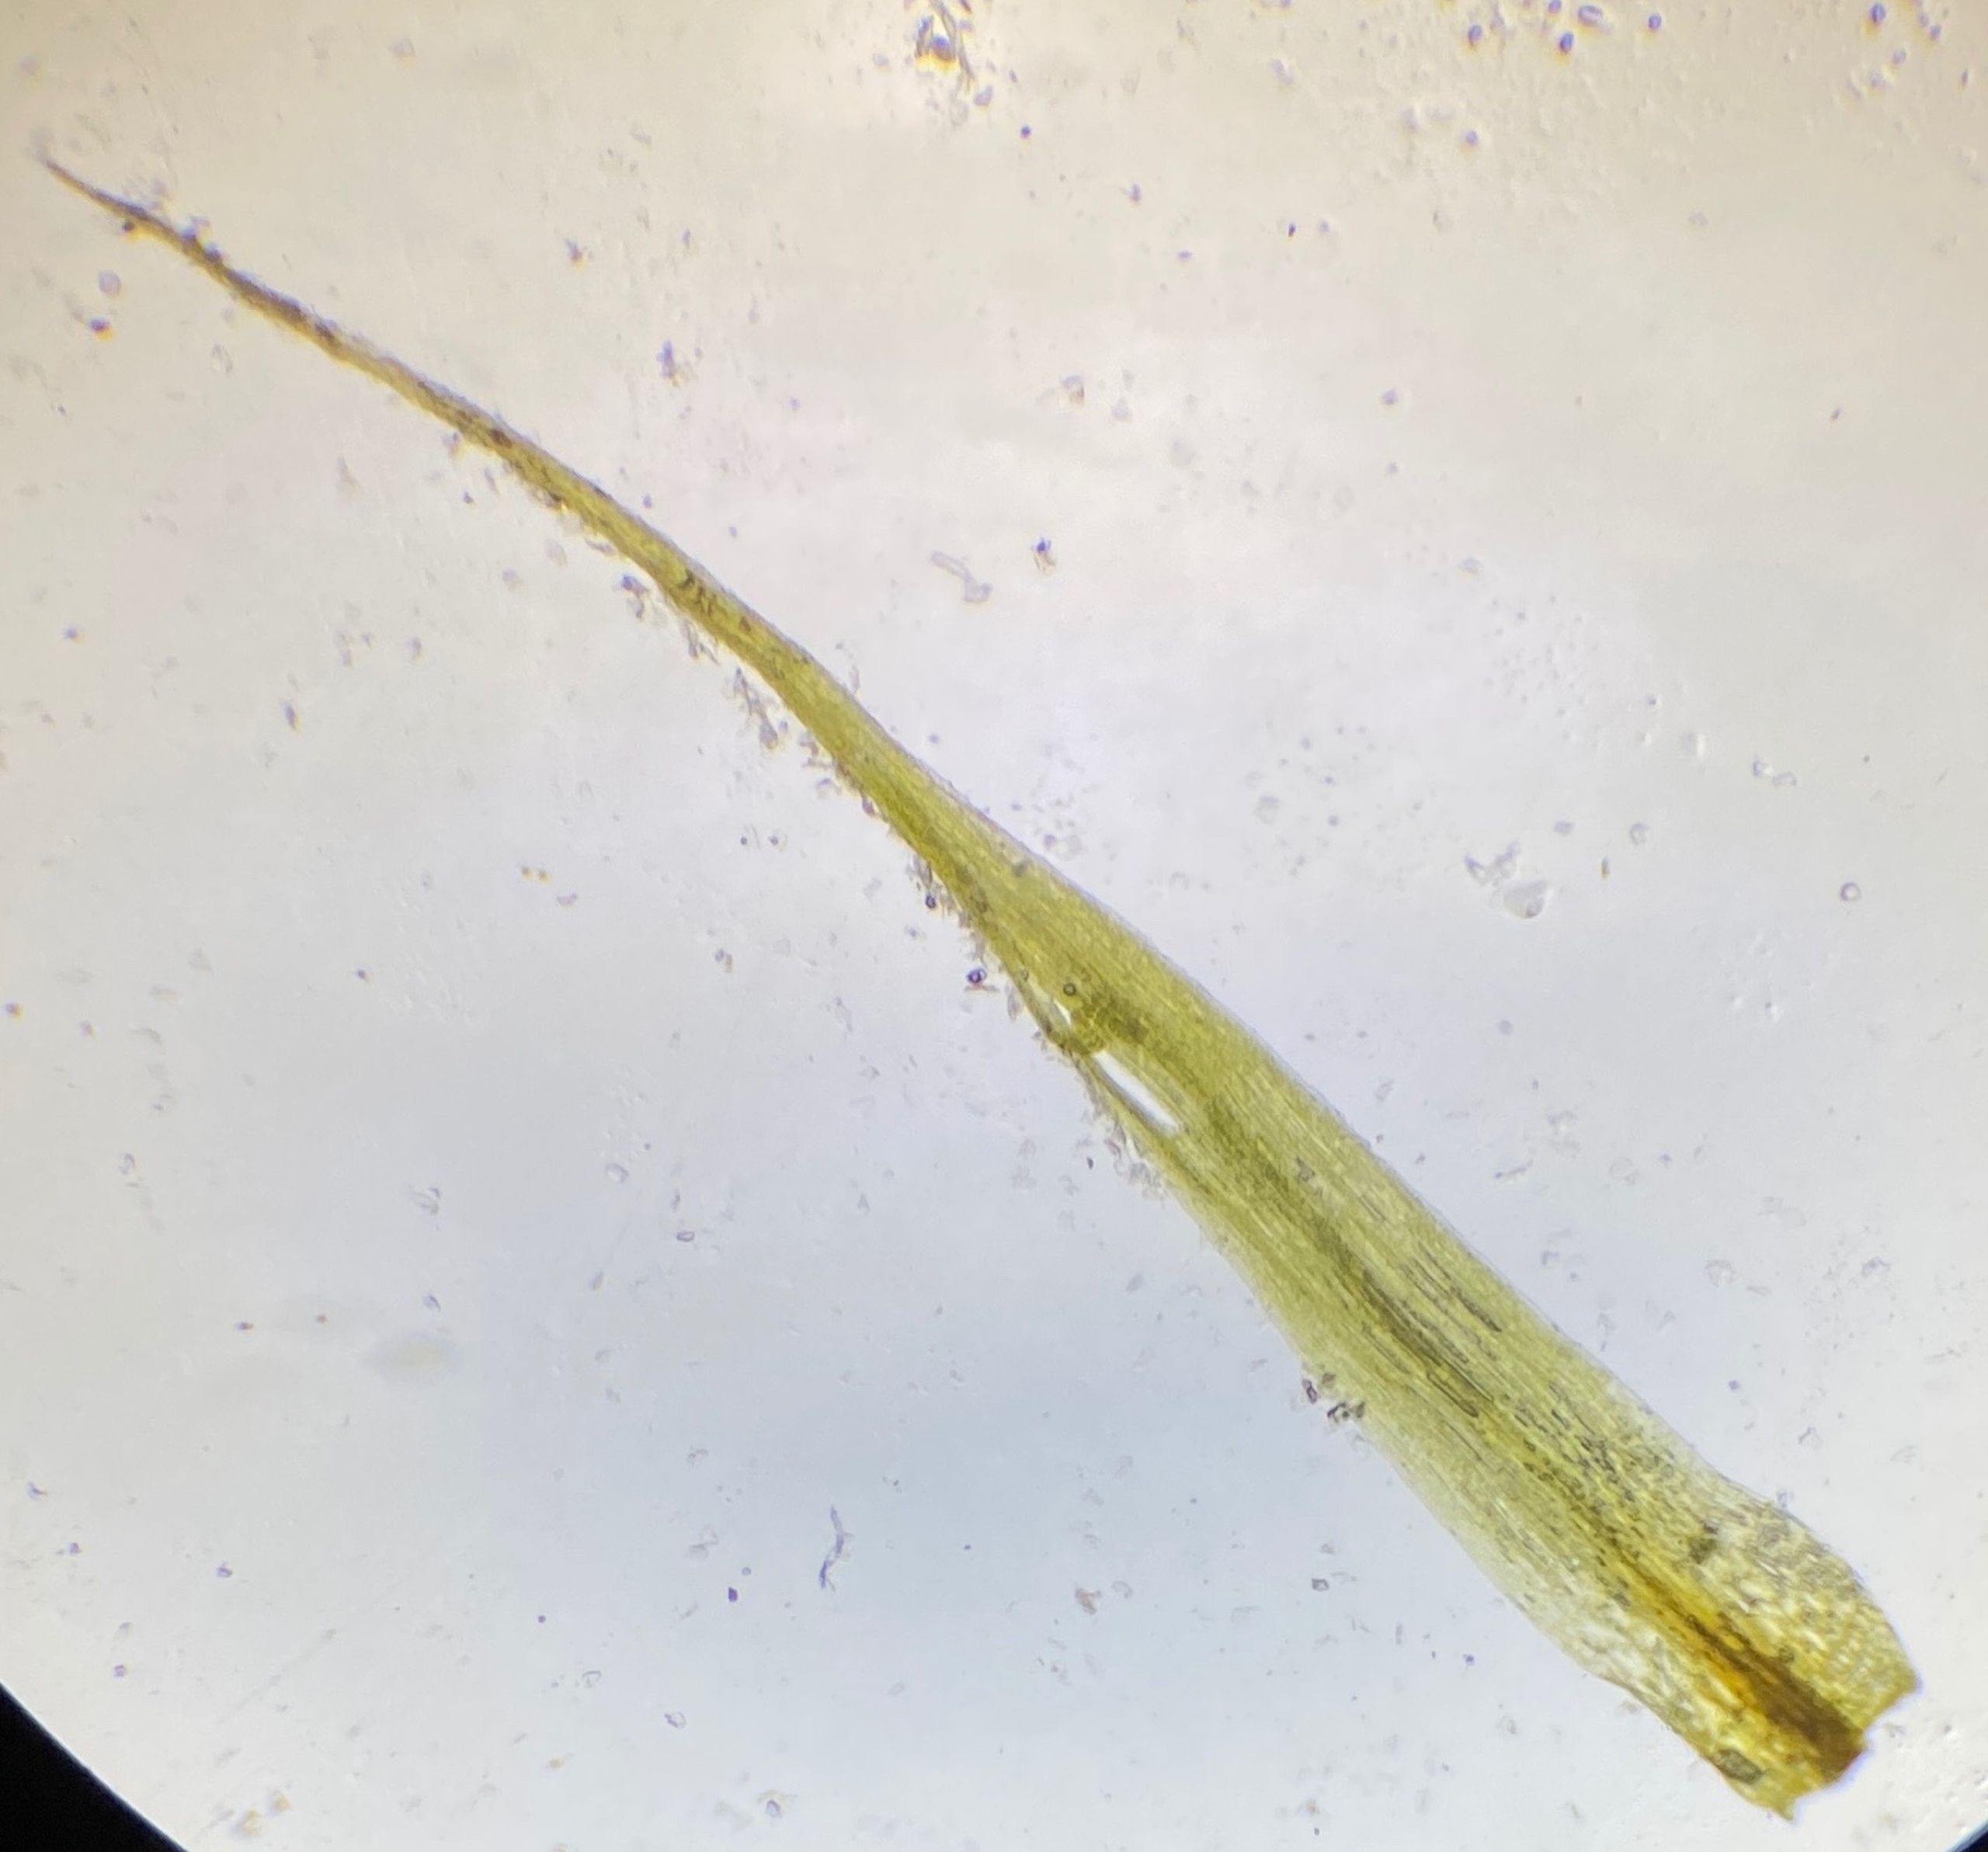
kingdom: Plantae
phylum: Bryophyta
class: Bryopsida
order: Dicranales
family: Ditrichaceae
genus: Pleuridium
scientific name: Pleuridium acuminatum
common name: Siddende sylbladsmos
